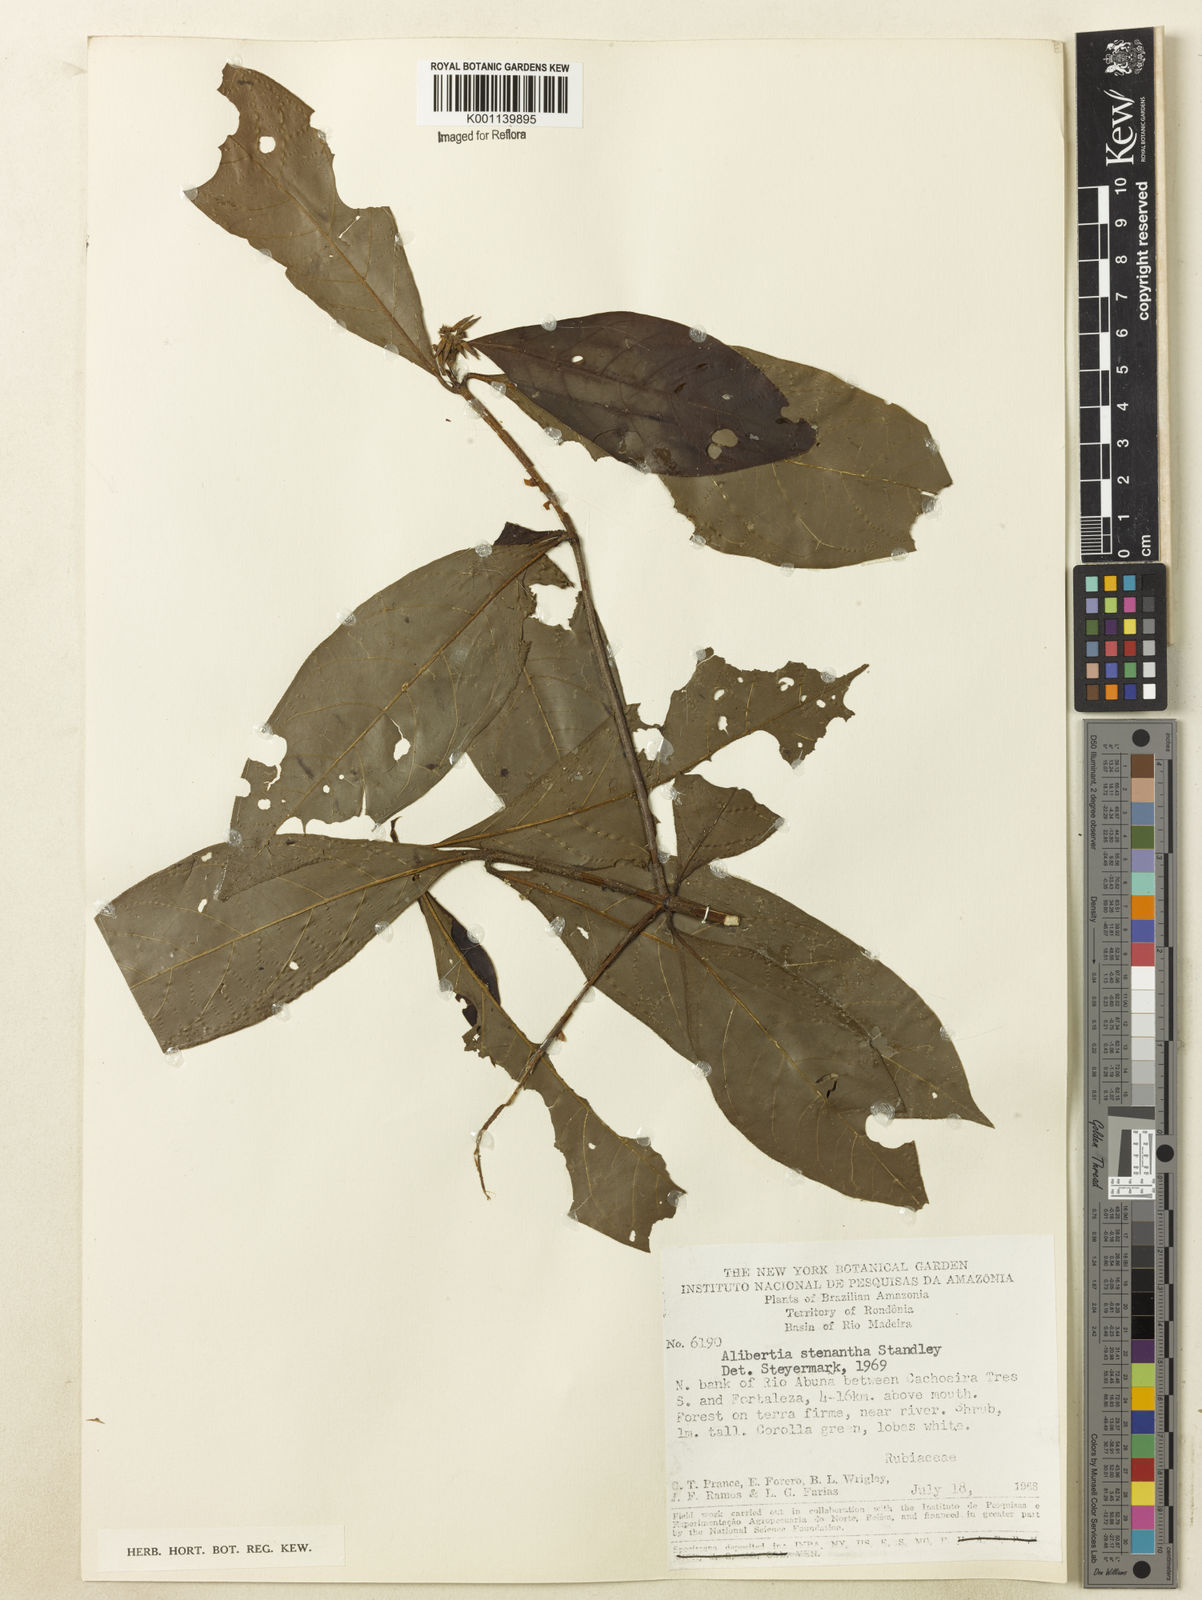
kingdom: Plantae
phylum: Tracheophyta
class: Magnoliopsida
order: Gentianales
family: Rubiaceae
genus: Alibertia
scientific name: Alibertia bertierifolia
